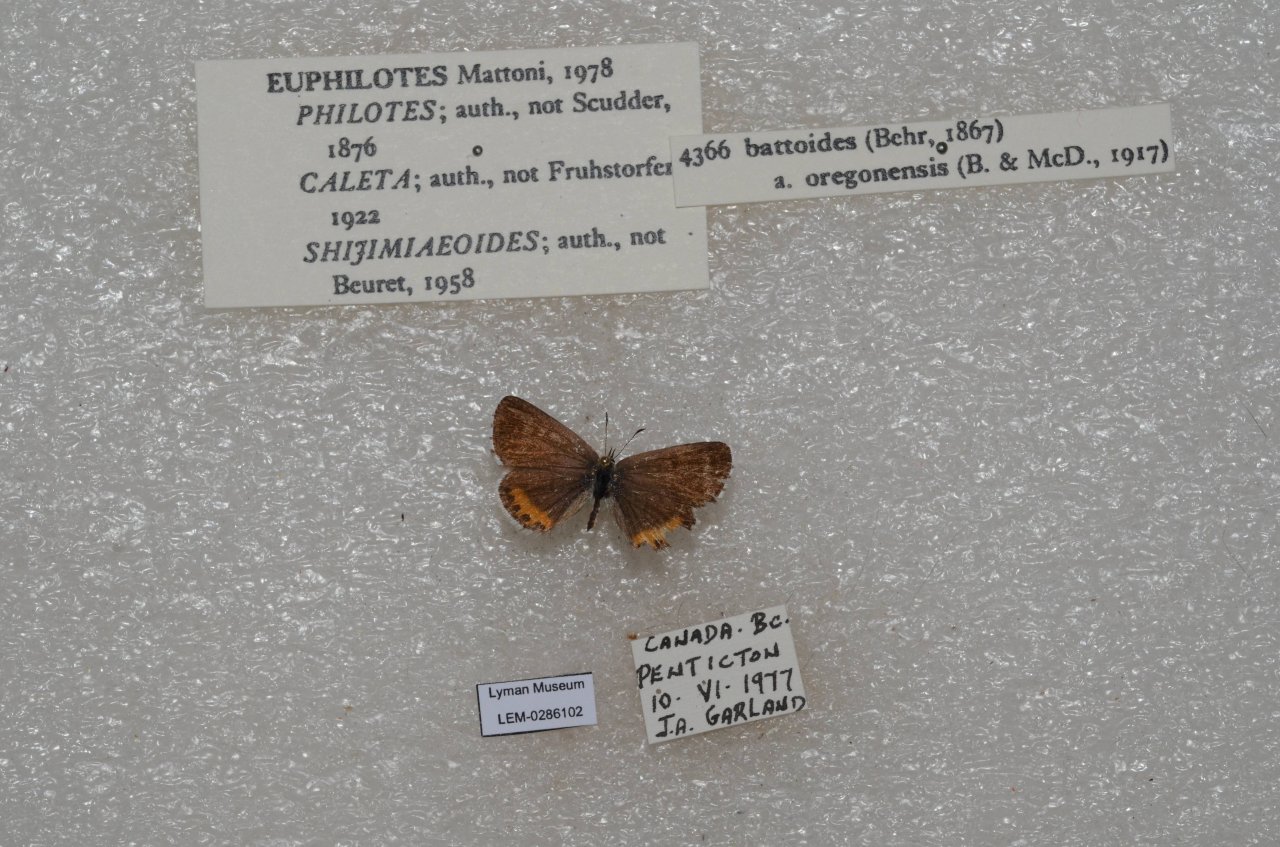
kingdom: Animalia
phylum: Arthropoda
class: Insecta
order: Lepidoptera
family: Lycaenidae
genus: Euphilotes
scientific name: Euphilotes battoides
